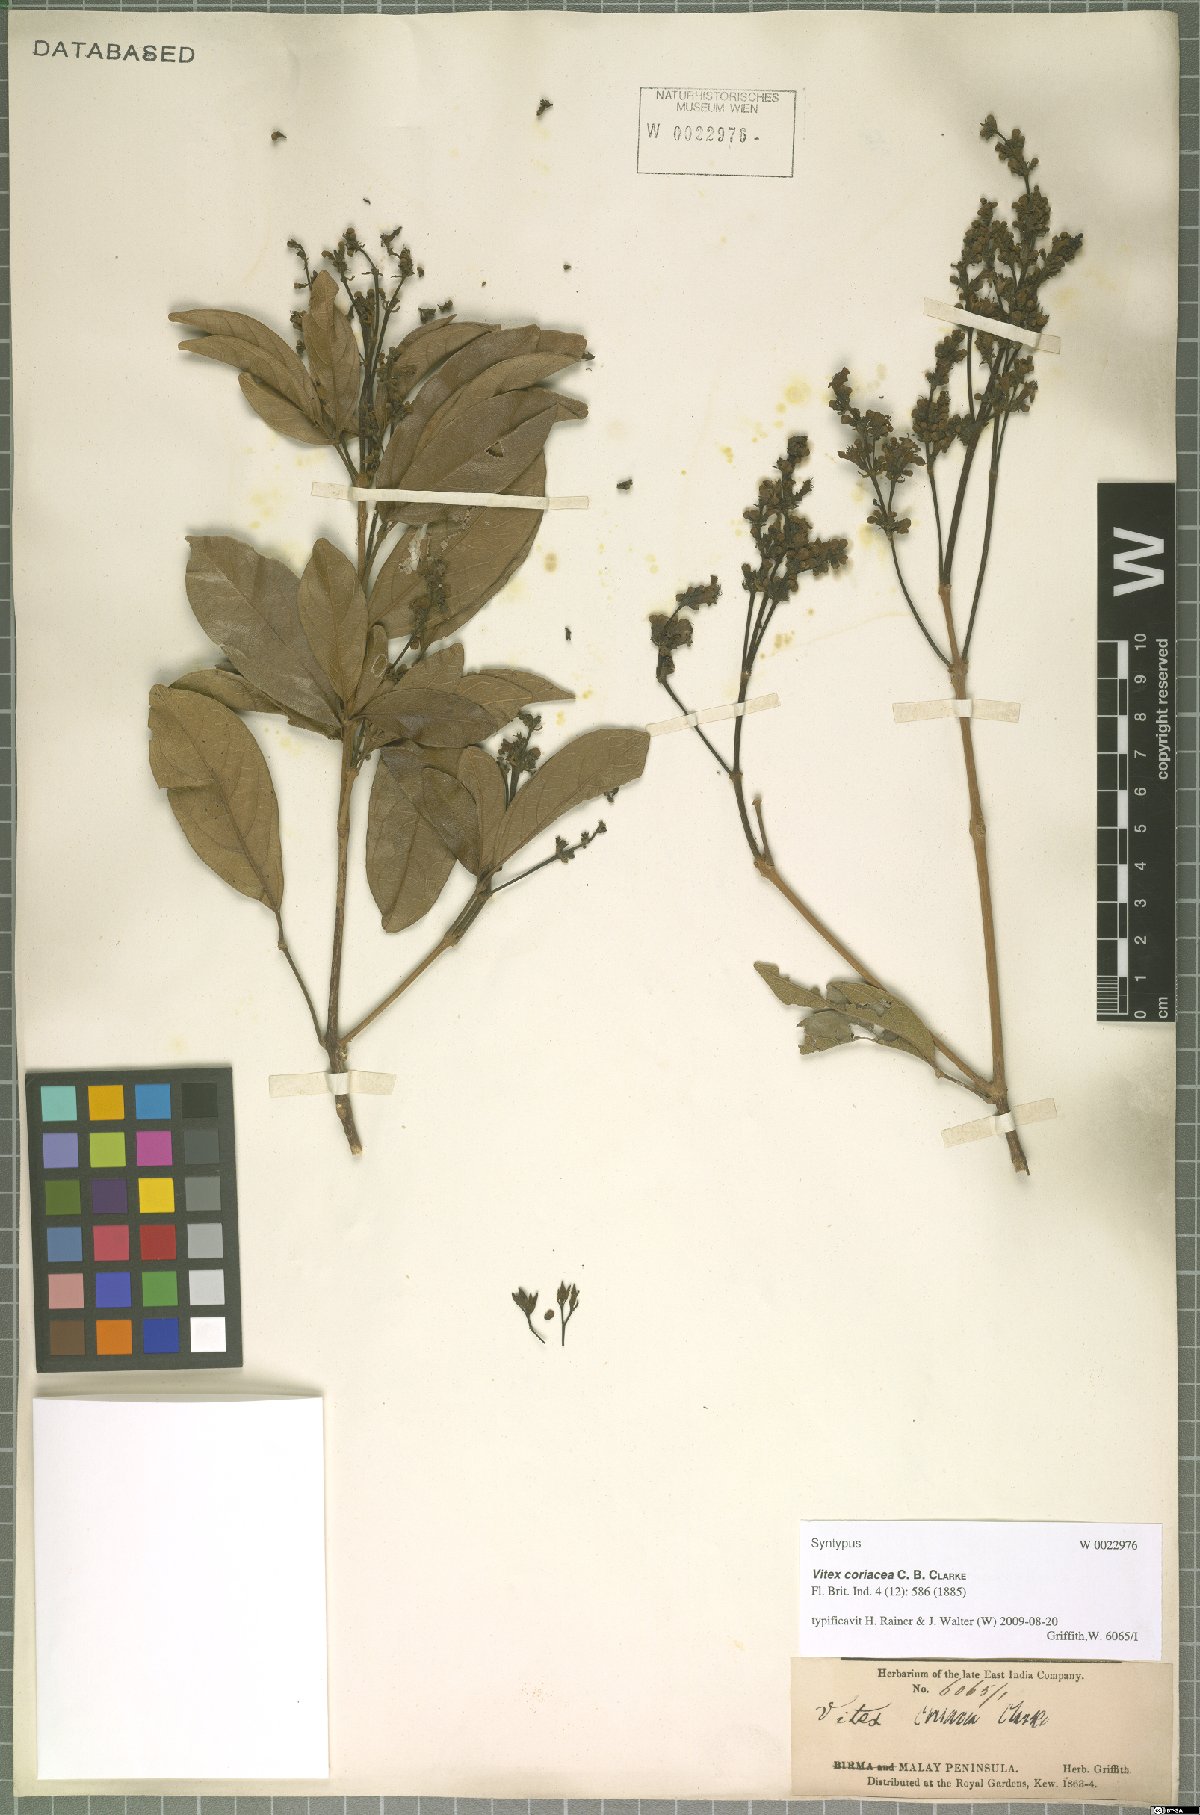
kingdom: Plantae
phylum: Tracheophyta
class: Magnoliopsida
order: Lamiales
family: Lamiaceae
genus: Teijsmanniodendron
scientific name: Teijsmanniodendron coriaceum
